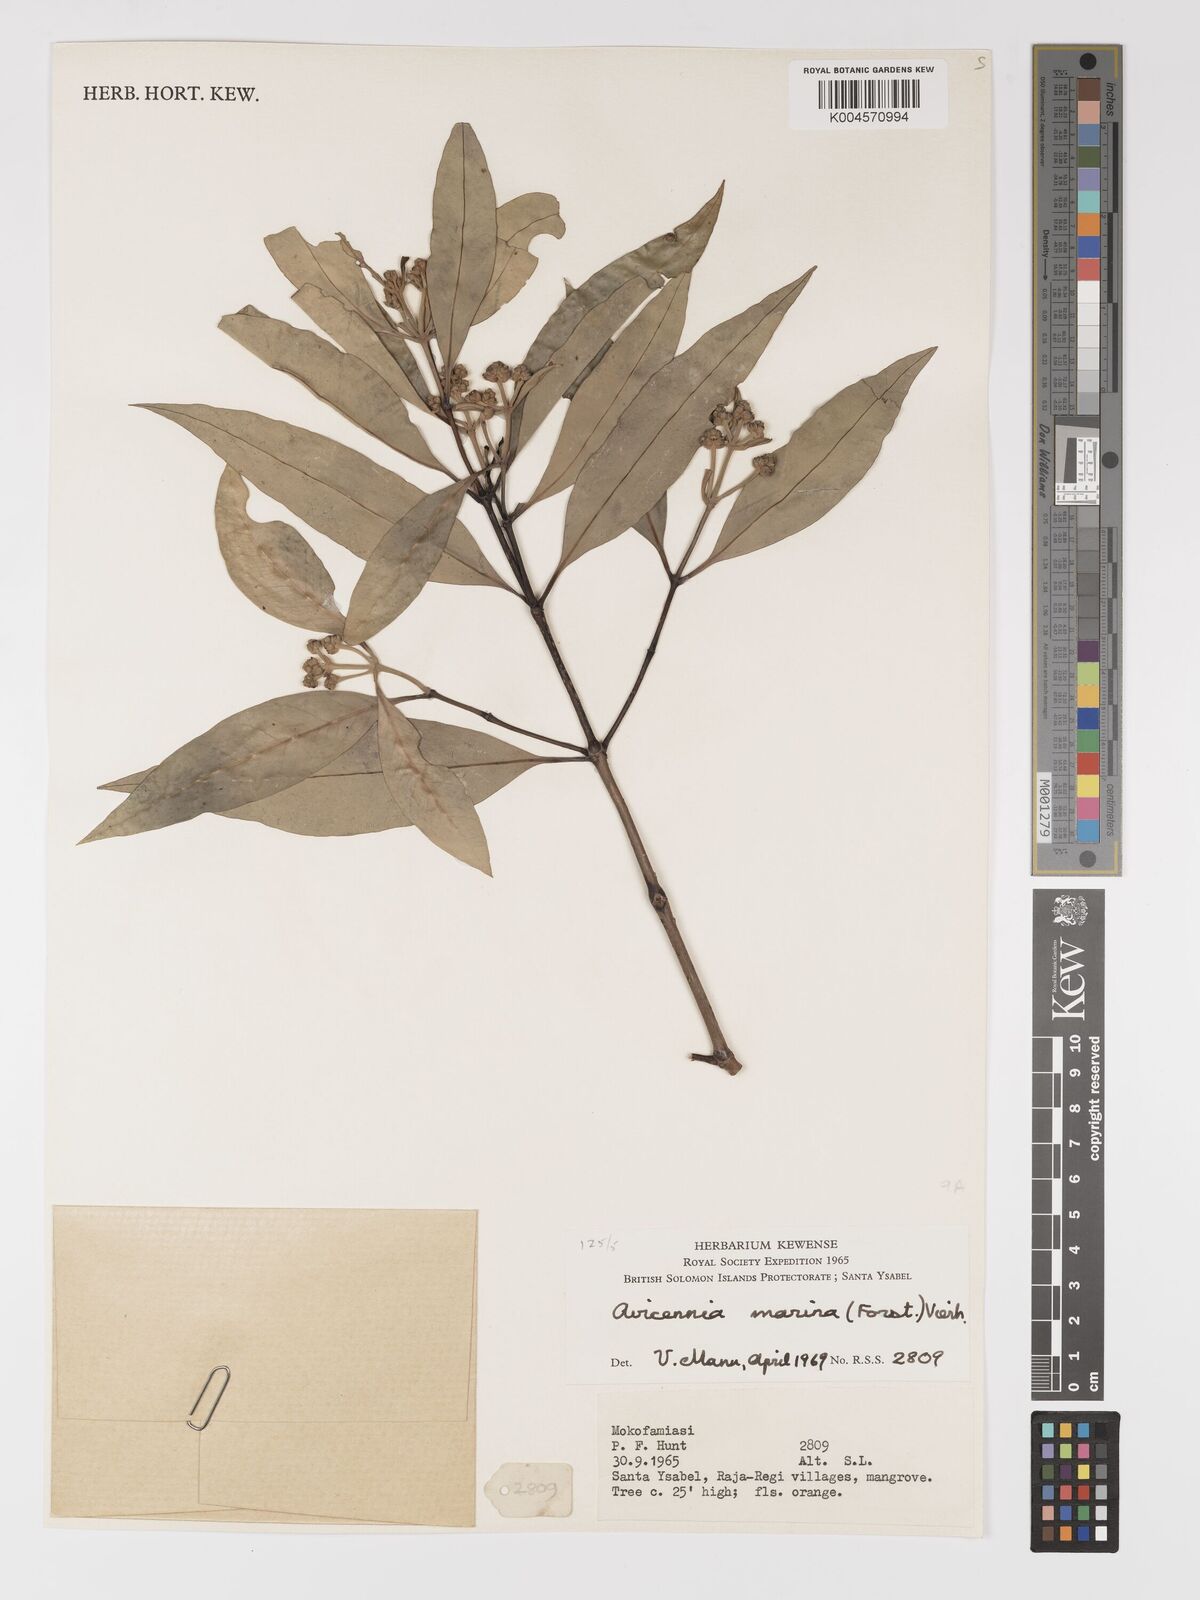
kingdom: Plantae
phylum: Tracheophyta
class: Magnoliopsida
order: Lamiales
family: Acanthaceae
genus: Avicennia
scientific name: Avicennia marina
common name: Gray mangrove
